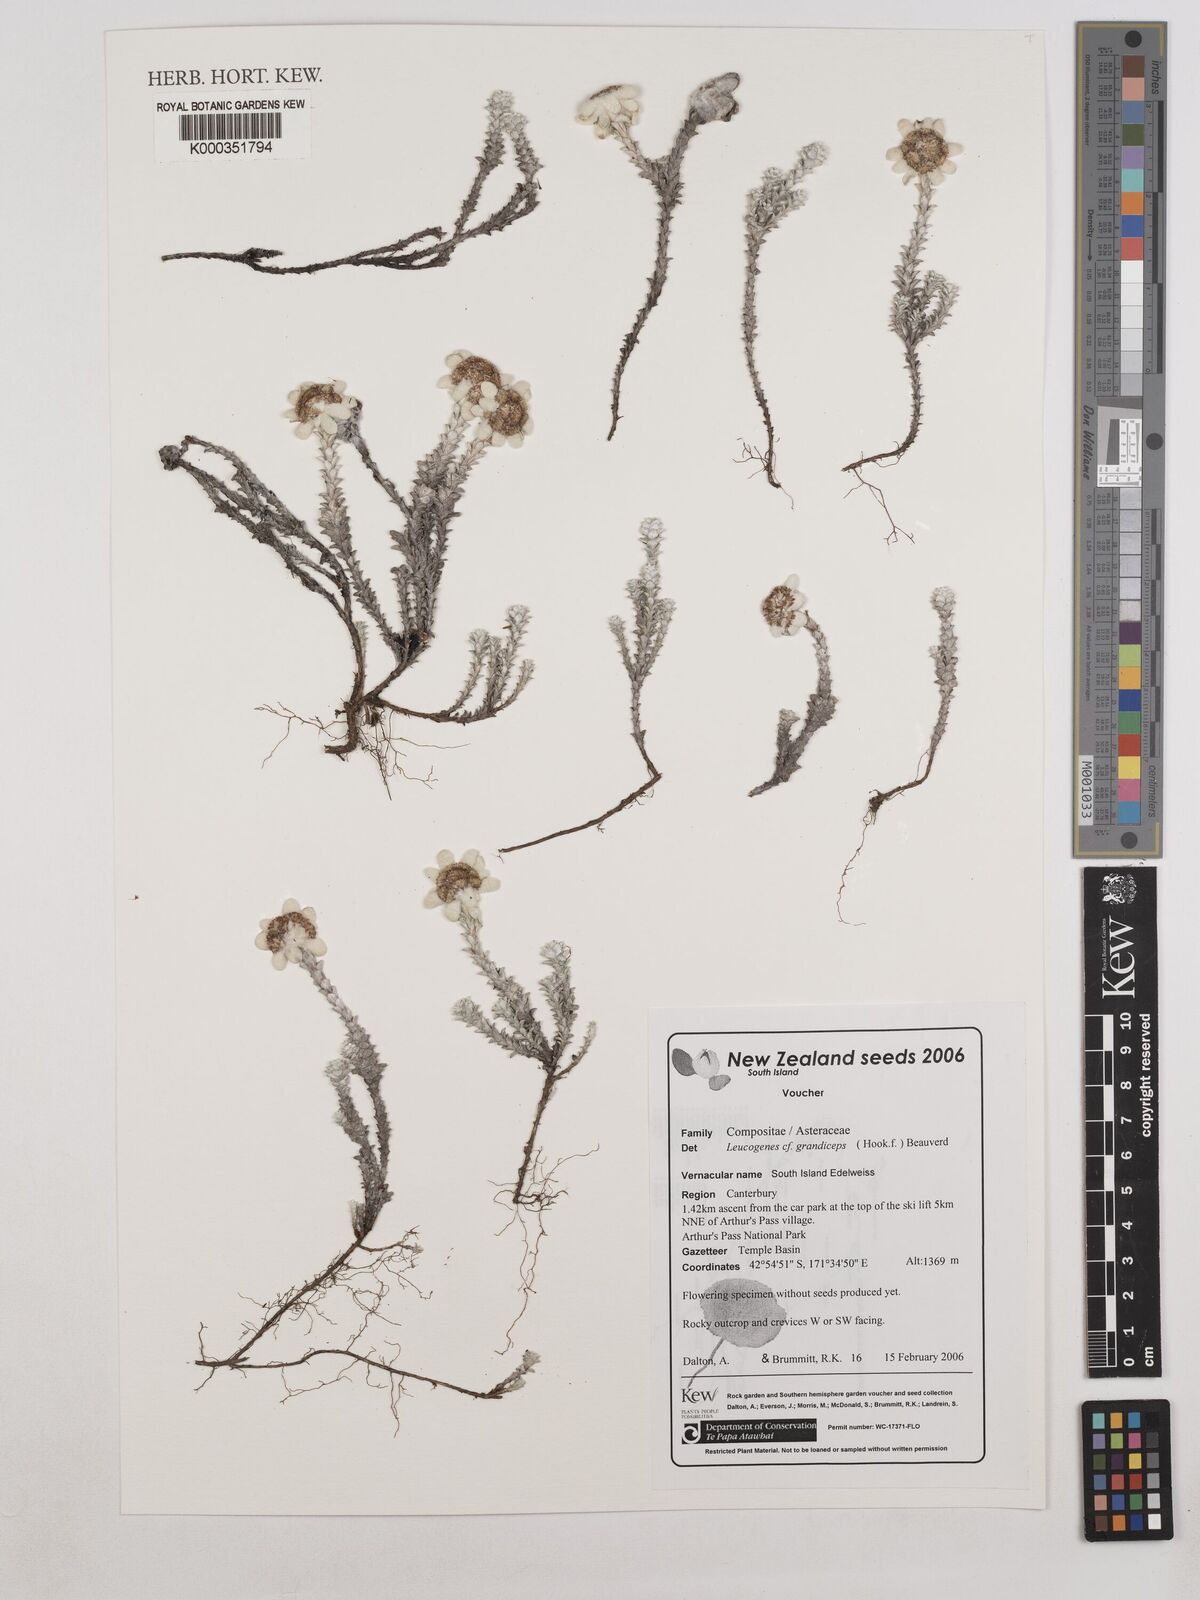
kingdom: Plantae
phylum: Tracheophyta
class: Magnoliopsida
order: Asterales
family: Asteraceae
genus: Leucogenes
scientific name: Leucogenes grandiceps
